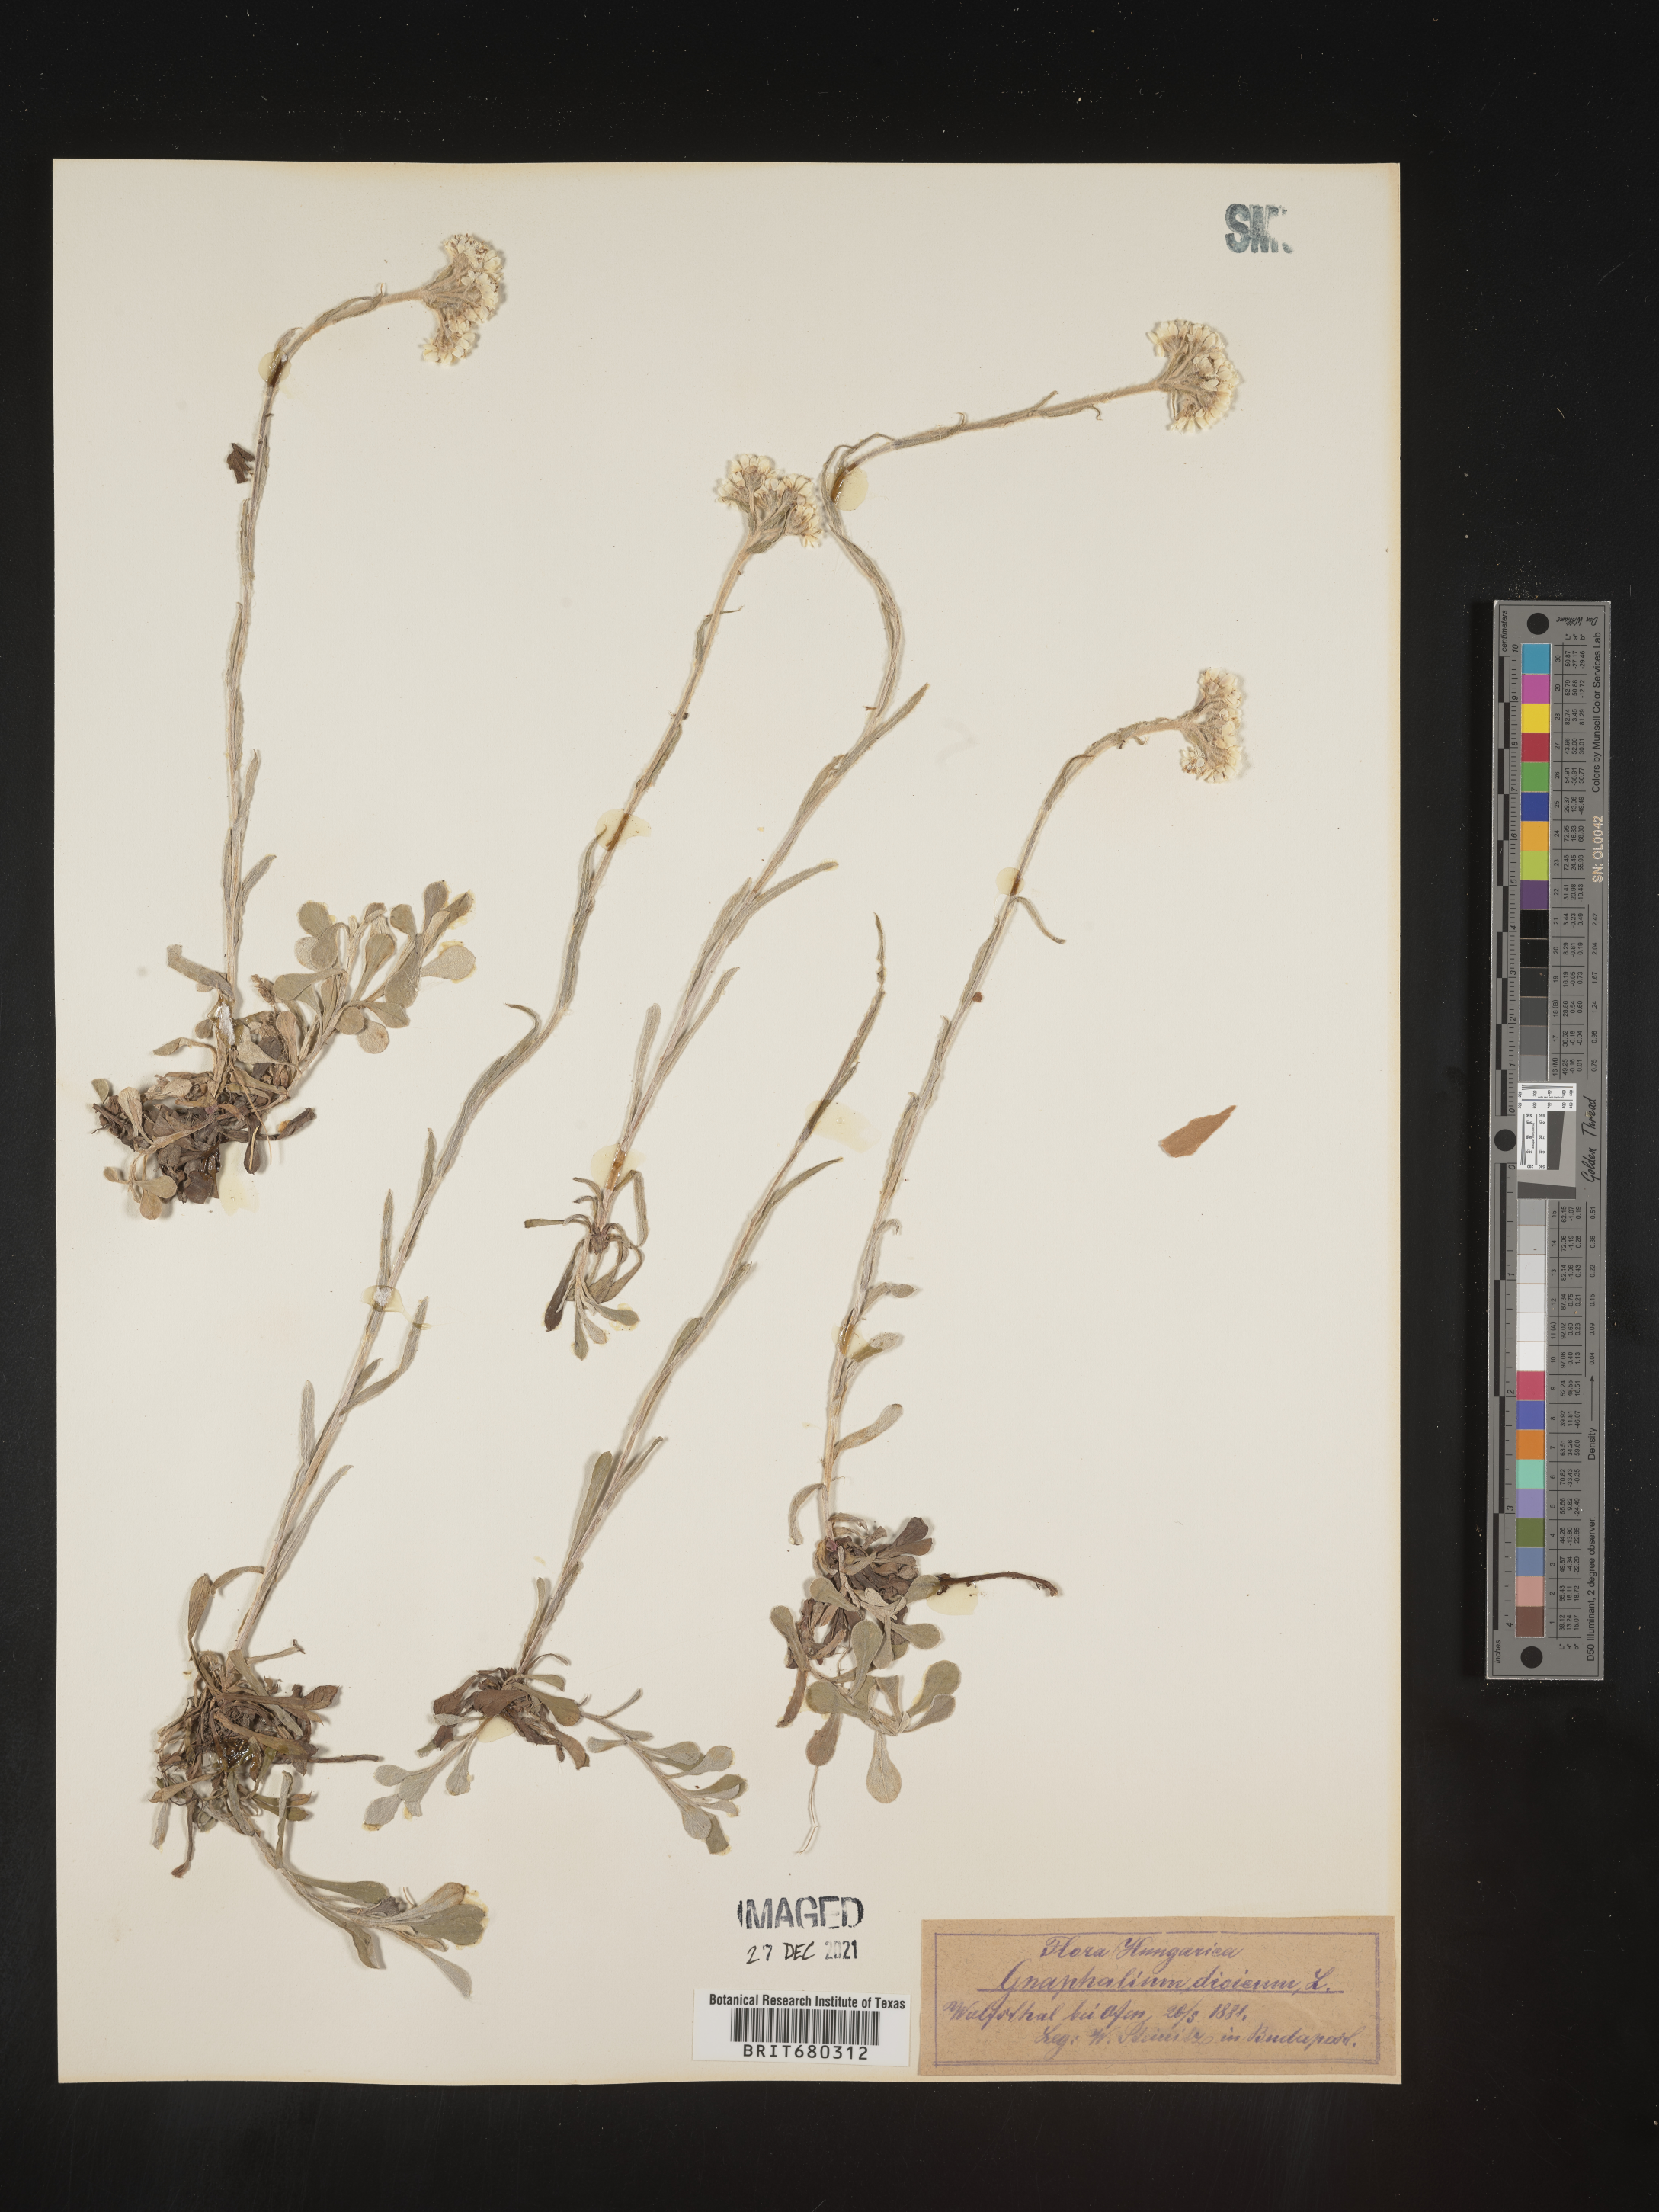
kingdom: Plantae
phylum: Tracheophyta
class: Magnoliopsida
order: Asterales
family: Asteraceae
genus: Antennaria
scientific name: Antennaria dioica
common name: Mountain everlasting
